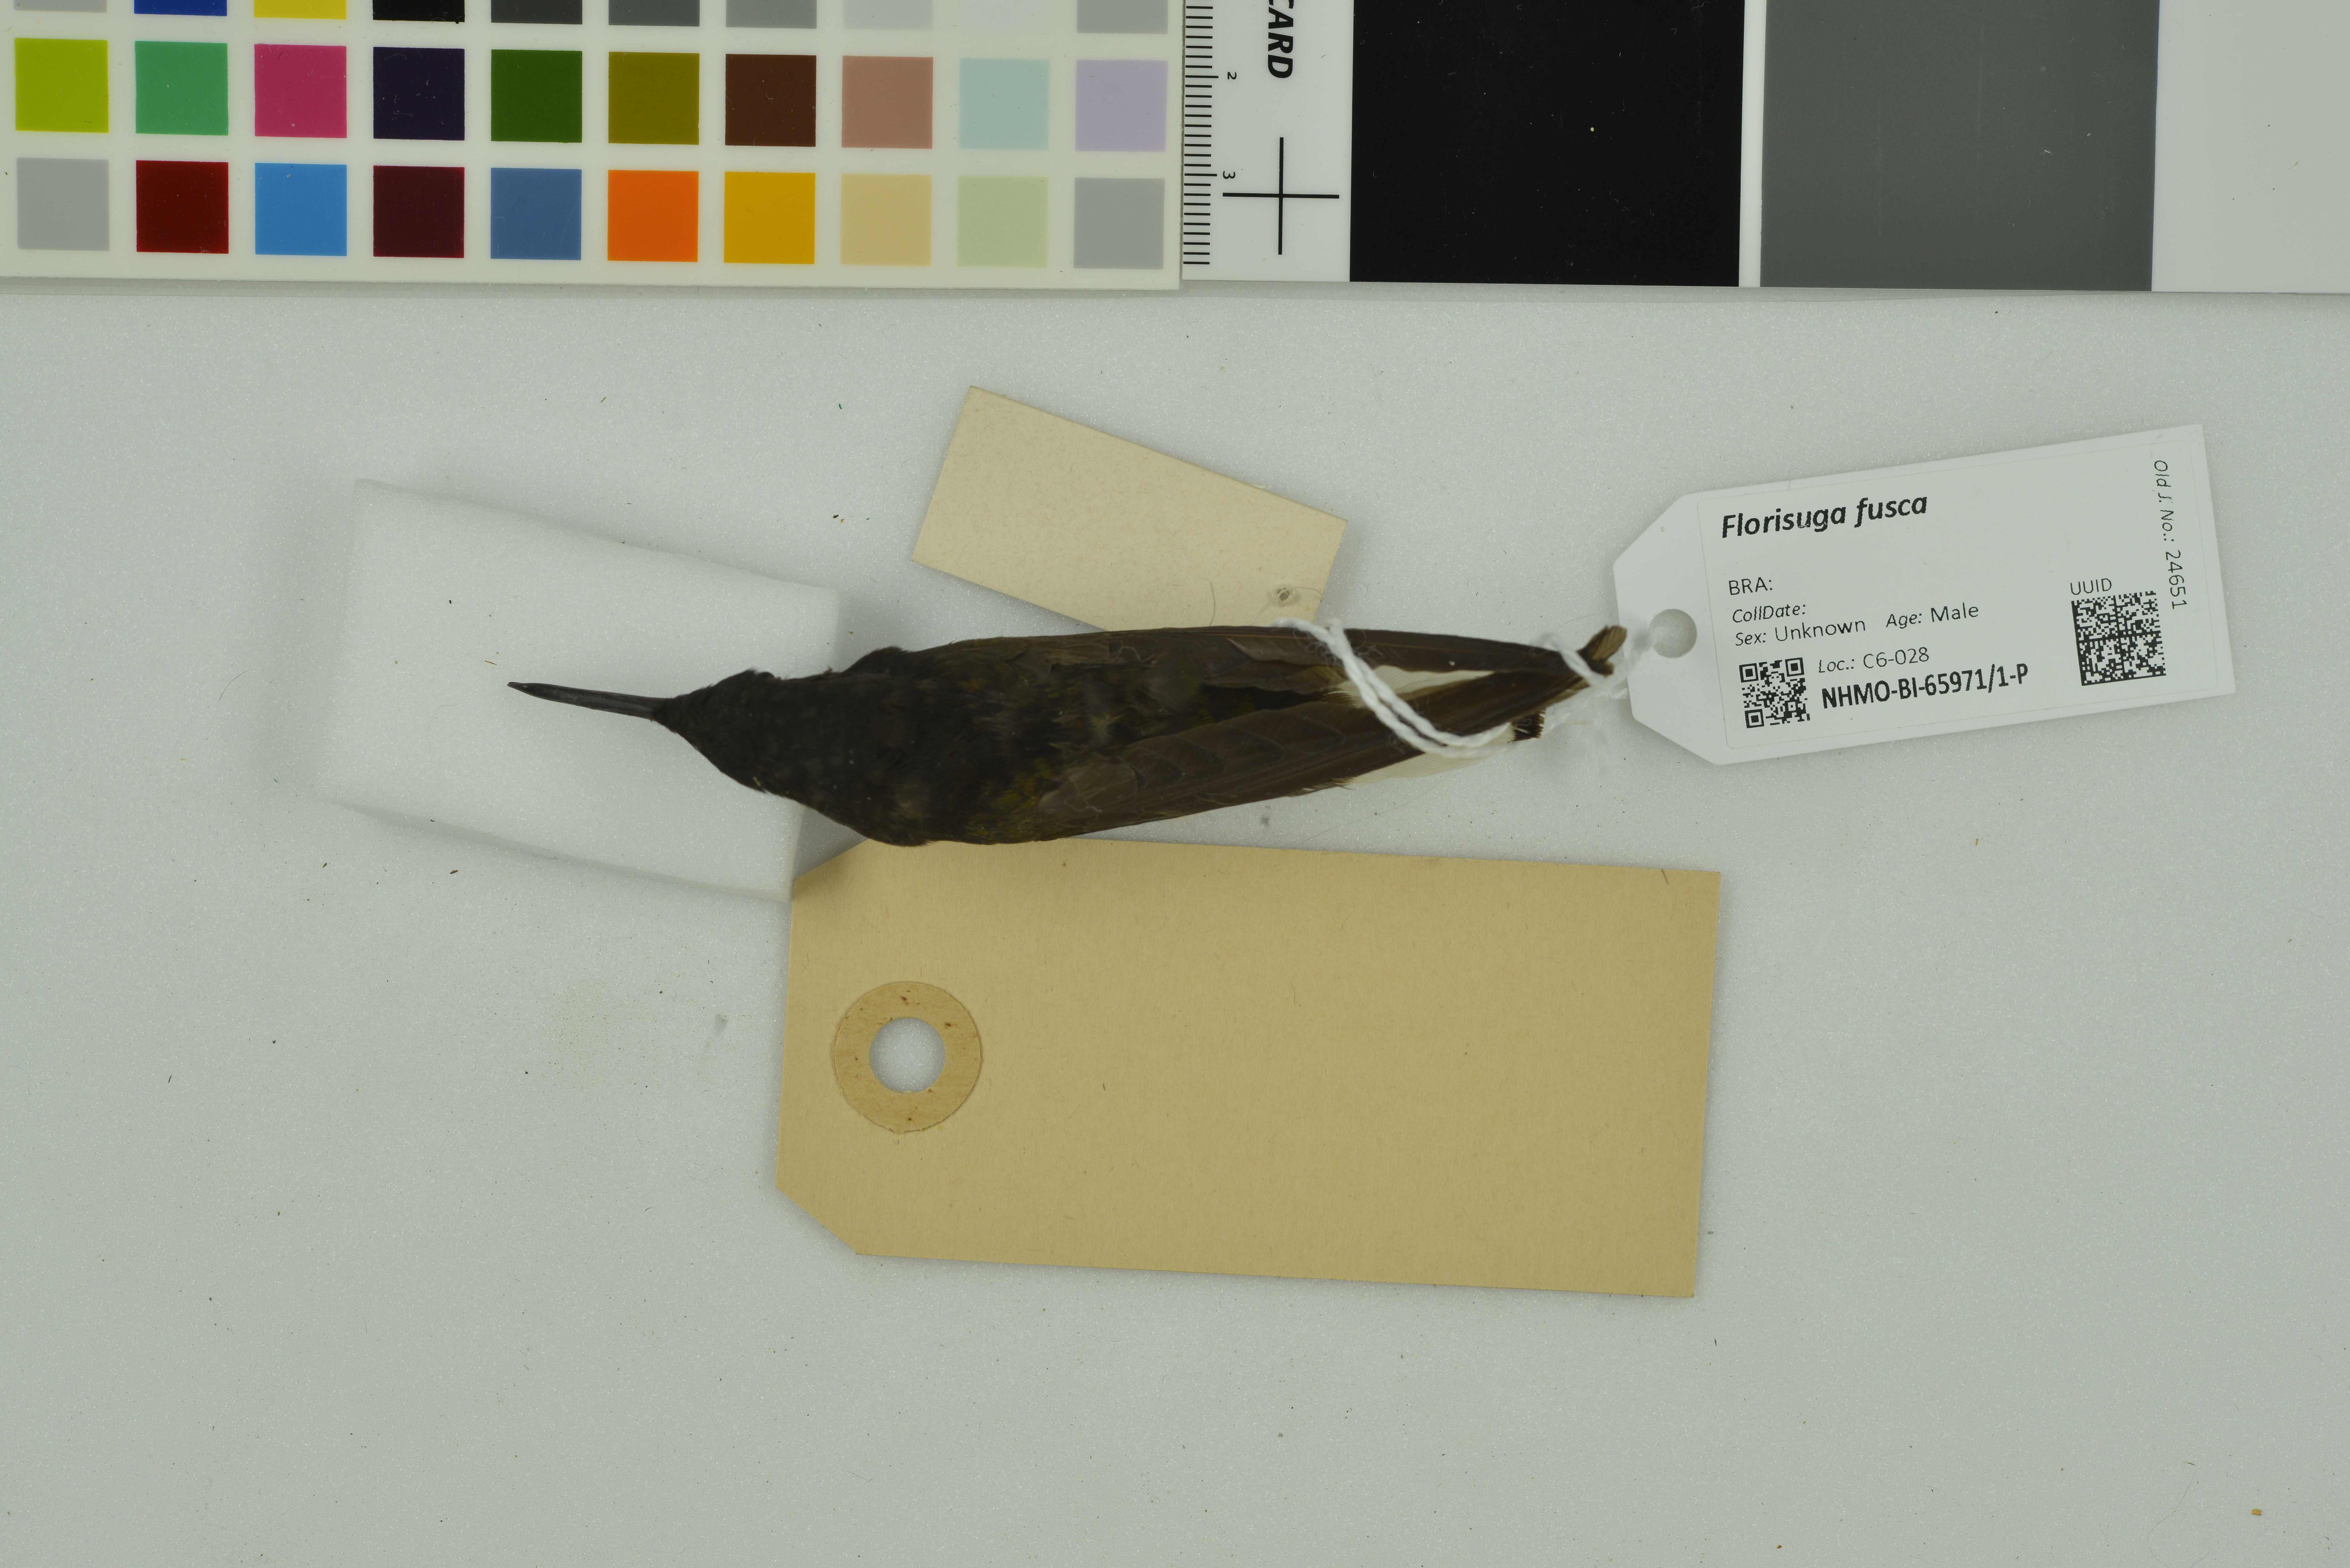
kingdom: Animalia
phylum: Chordata
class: Aves
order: Apodiformes
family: Trochilidae
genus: Florisuga
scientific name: Florisuga fusca
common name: Black jacobin
